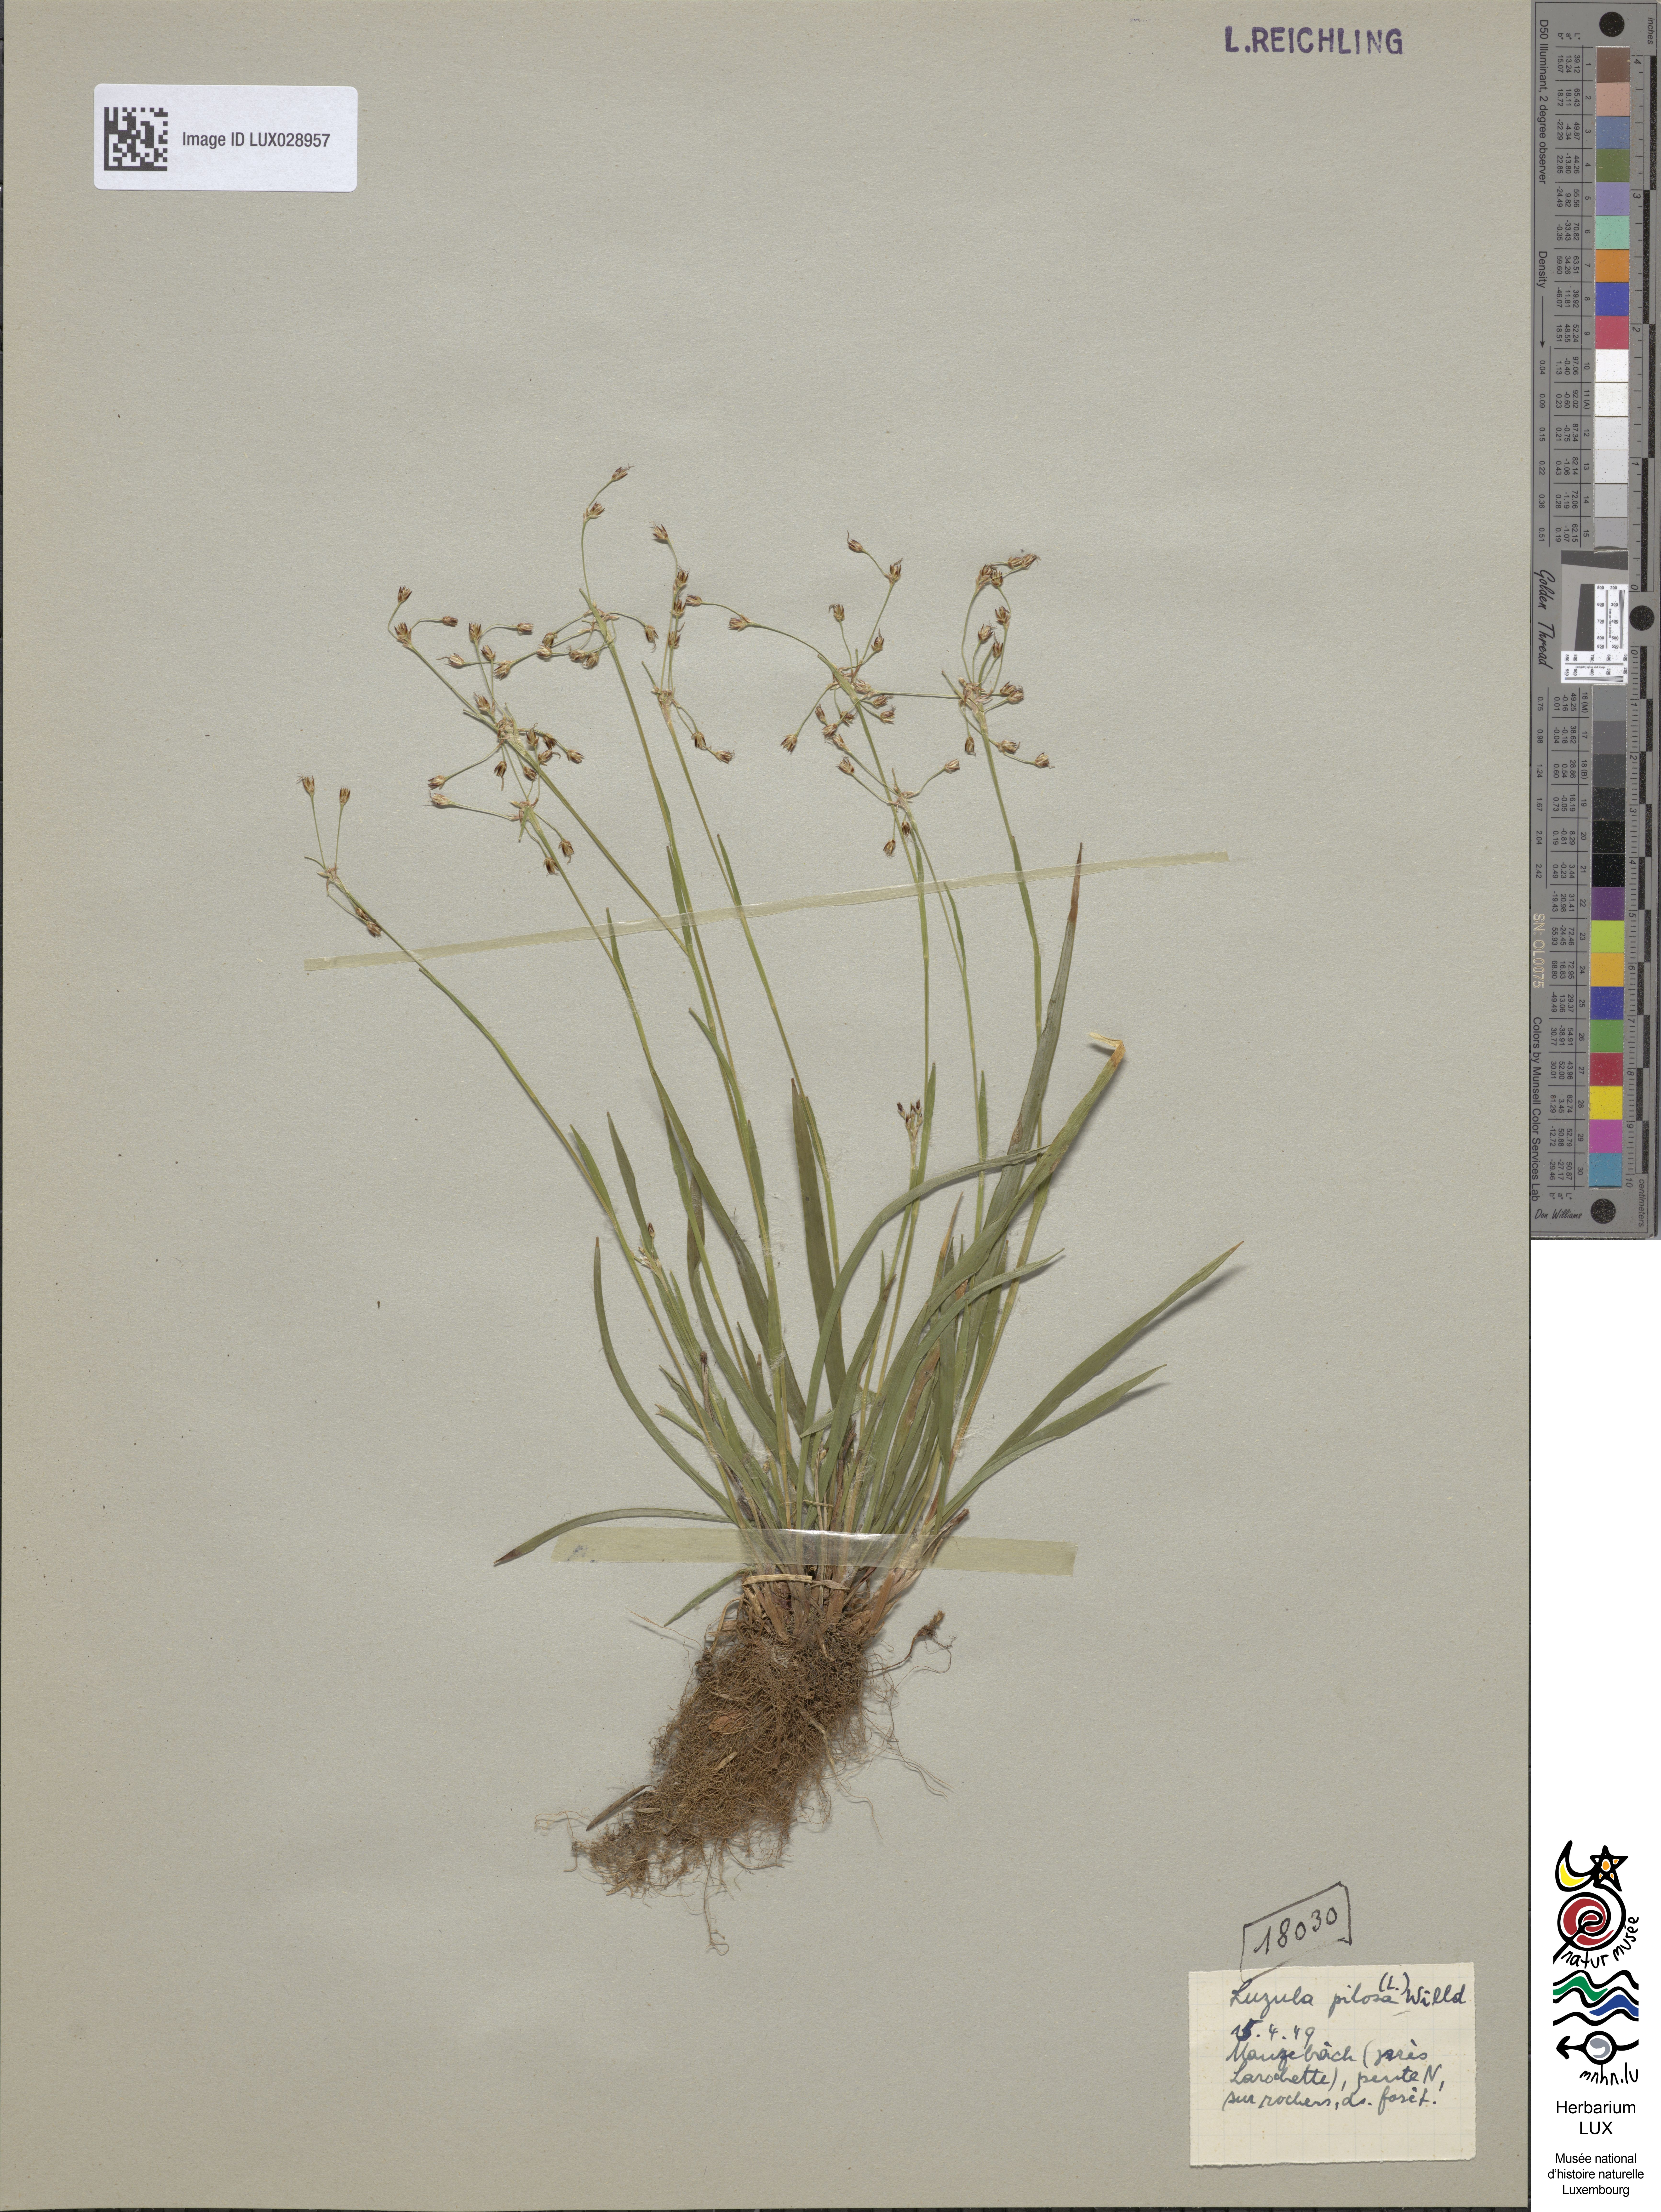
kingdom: Plantae
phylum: Tracheophyta
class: Liliopsida
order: Poales
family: Juncaceae
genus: Luzula
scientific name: Luzula pilosa
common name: Hairy wood-rush
